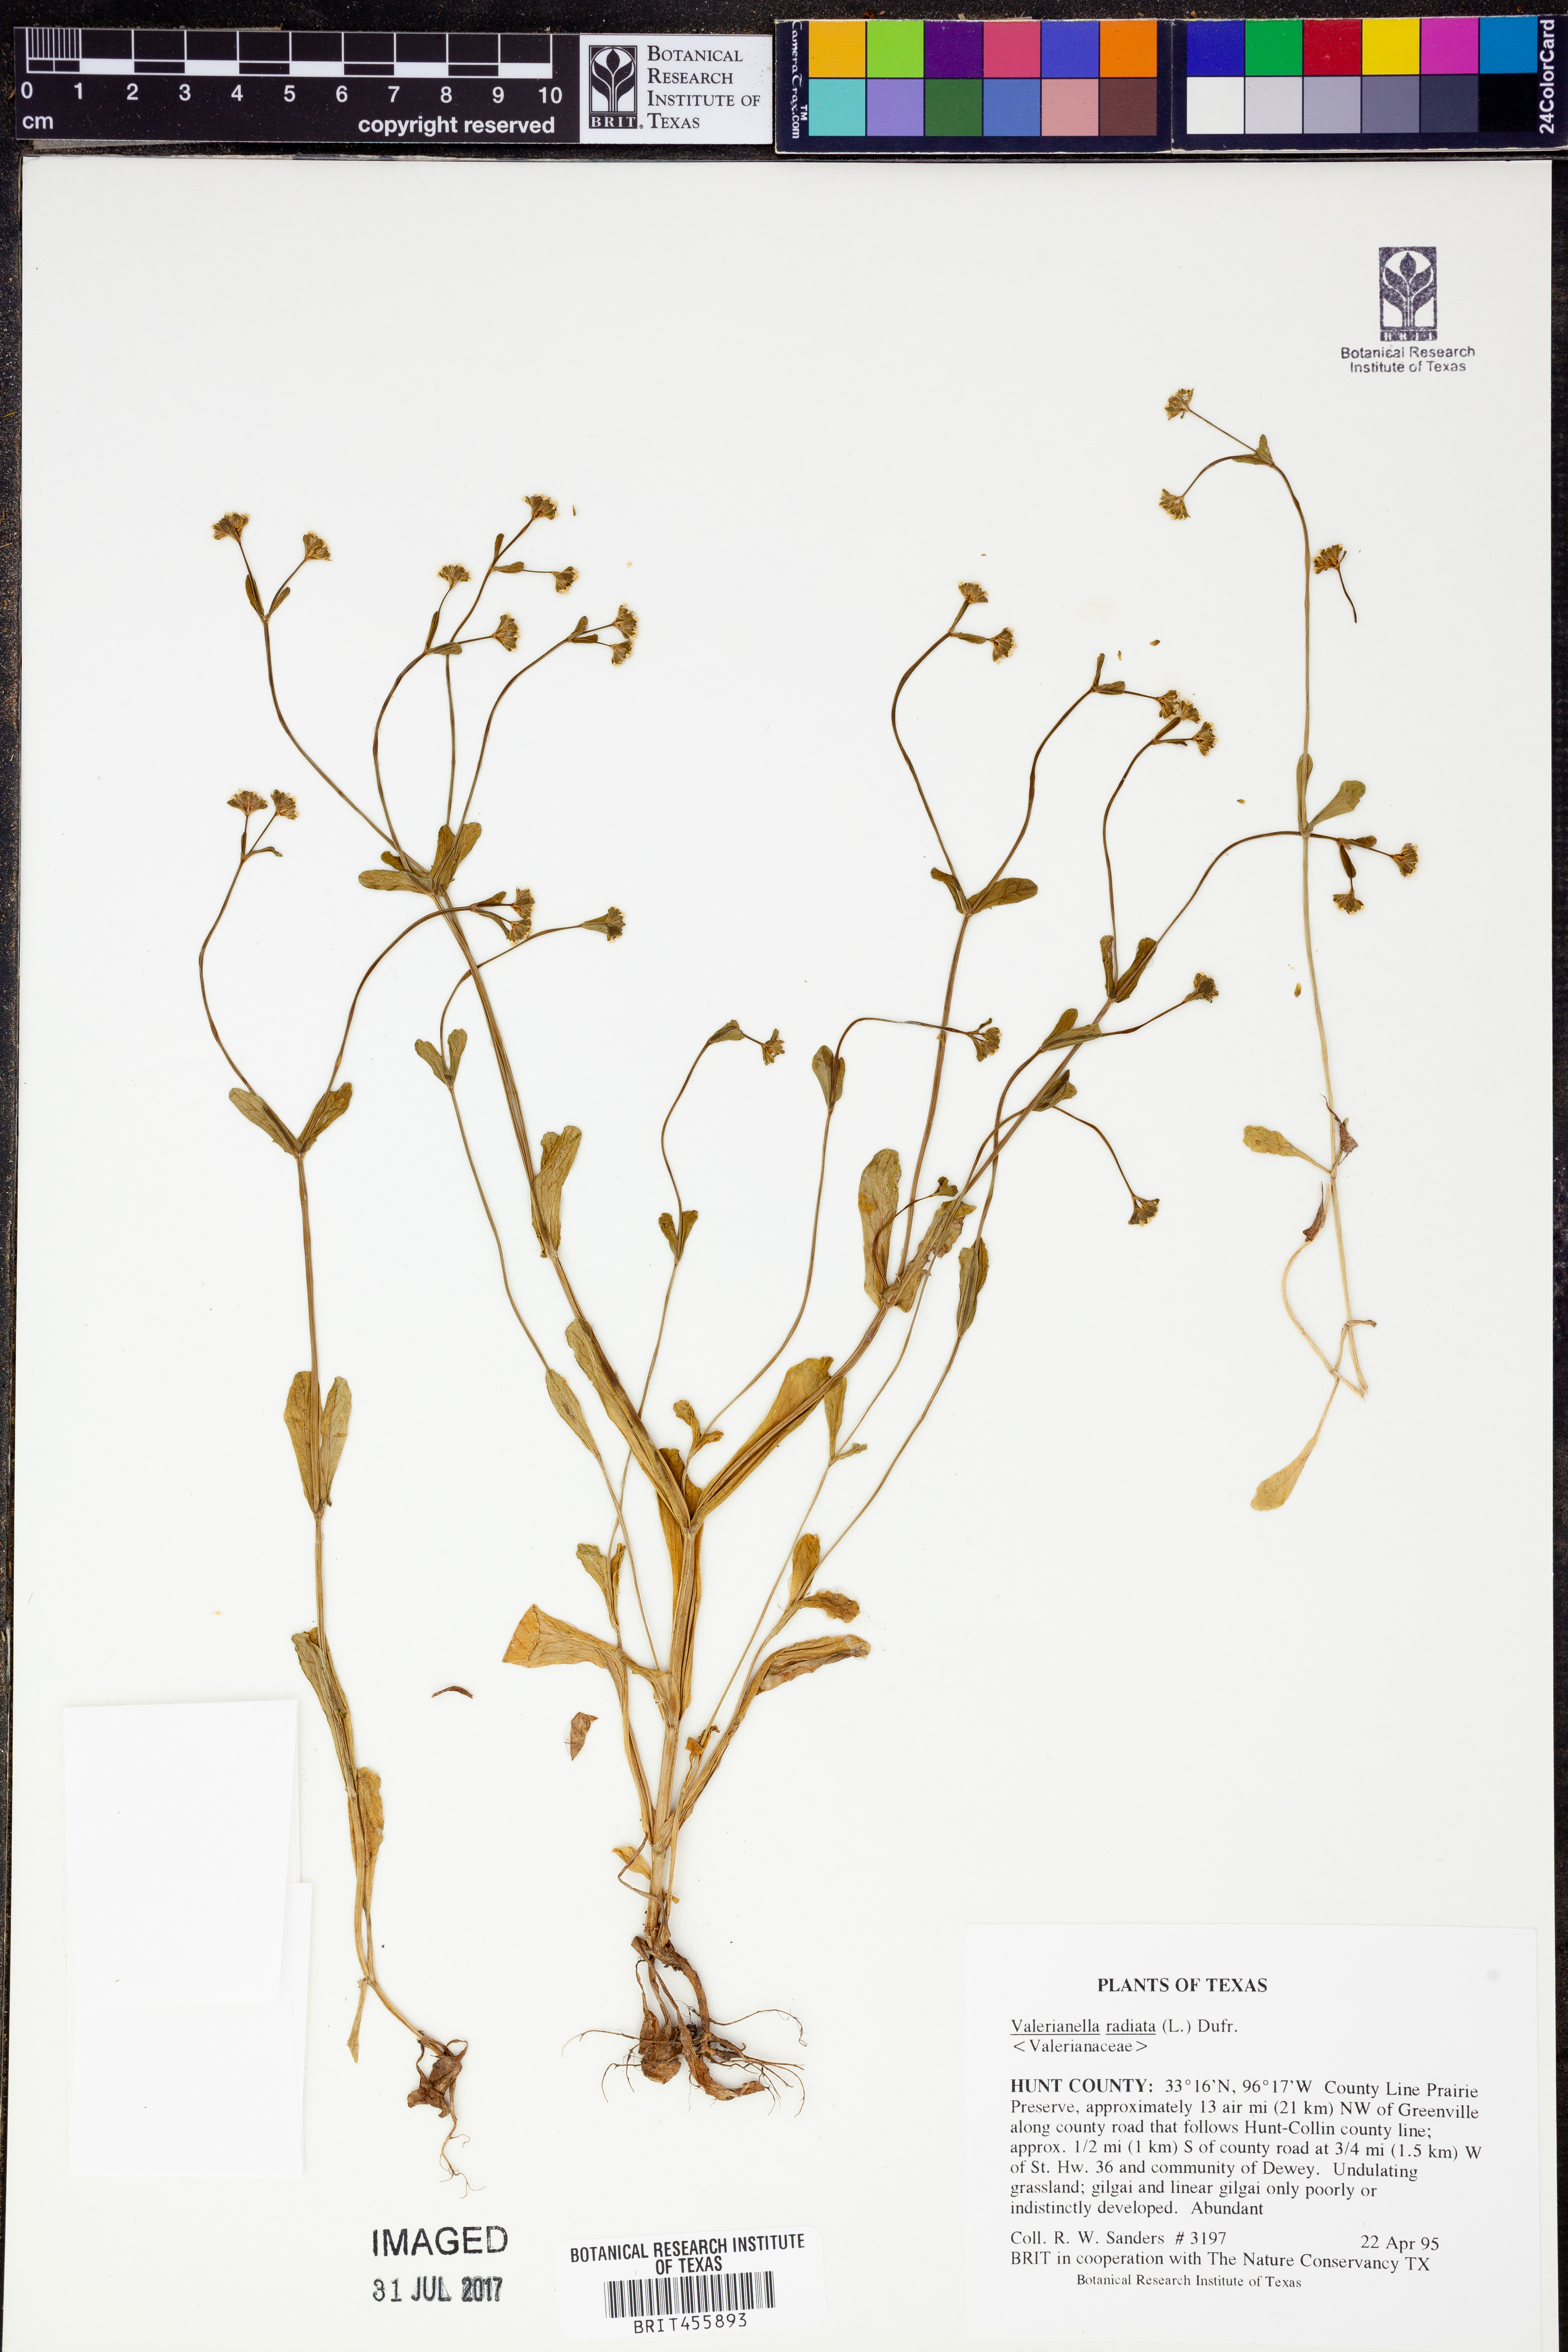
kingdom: Plantae
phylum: Tracheophyta
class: Magnoliopsida
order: Dipsacales
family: Caprifoliaceae
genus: Valerianella
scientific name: Valerianella radiata
